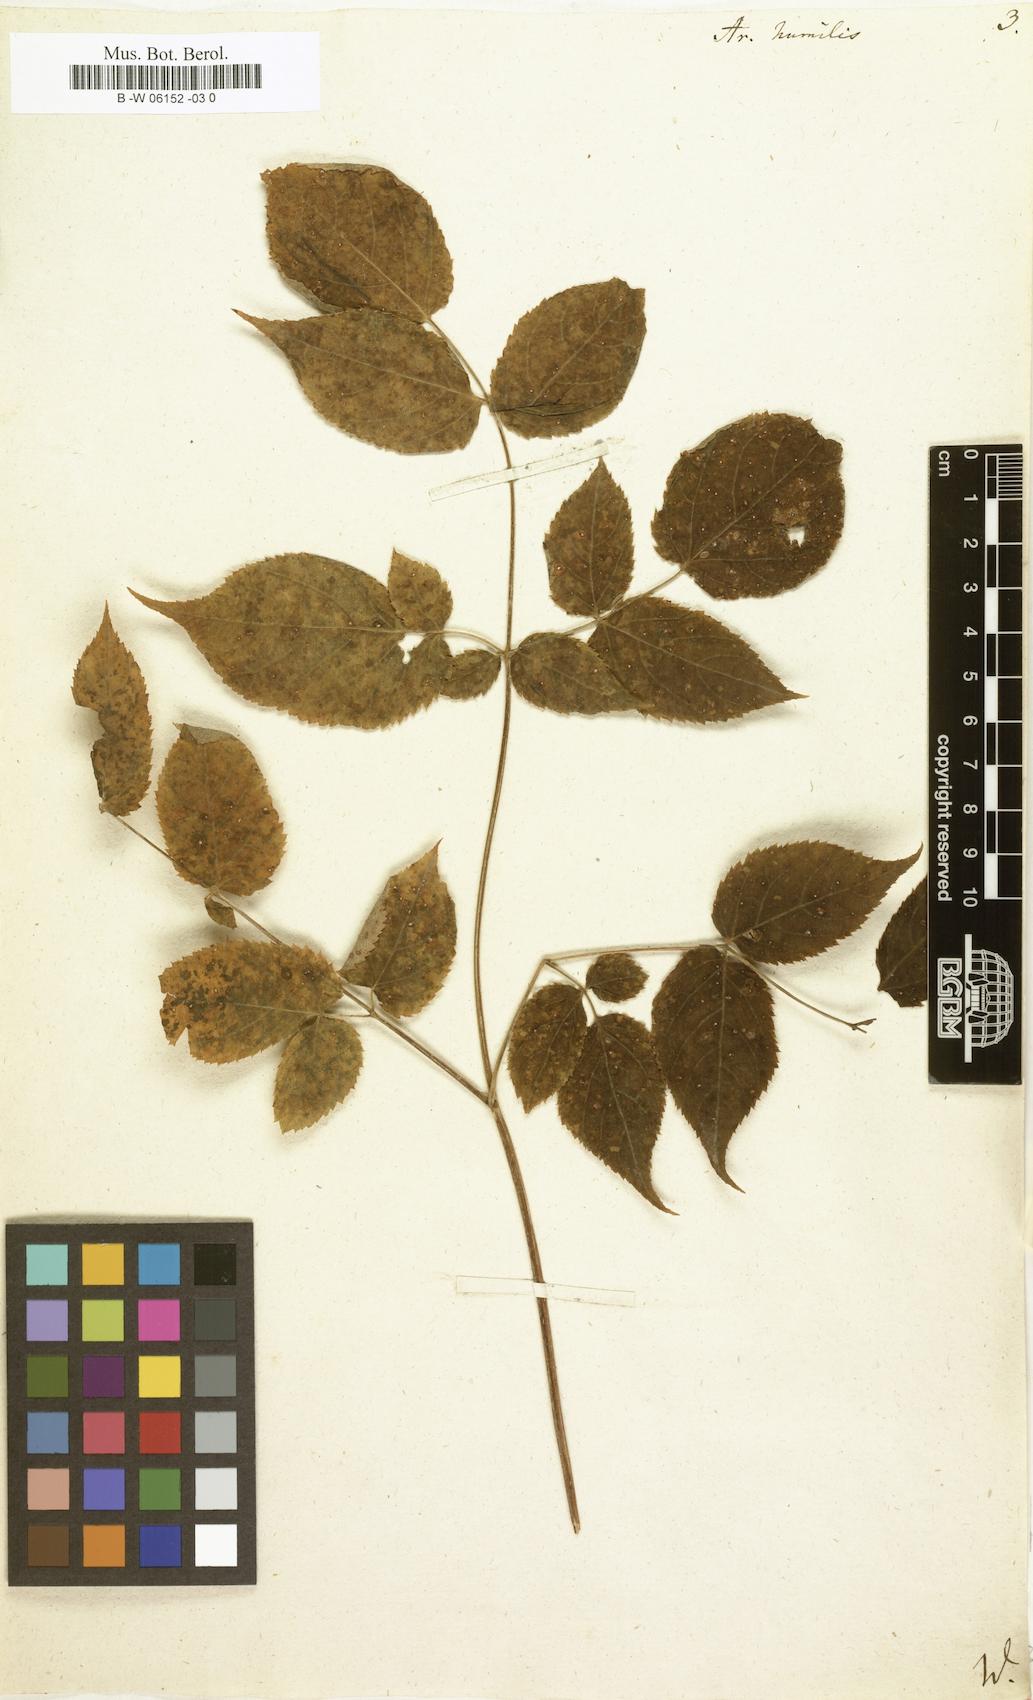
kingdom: Plantae
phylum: Tracheophyta
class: Magnoliopsida
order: Apiales
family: Araliaceae
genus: Aralia
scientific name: Aralia humilis
